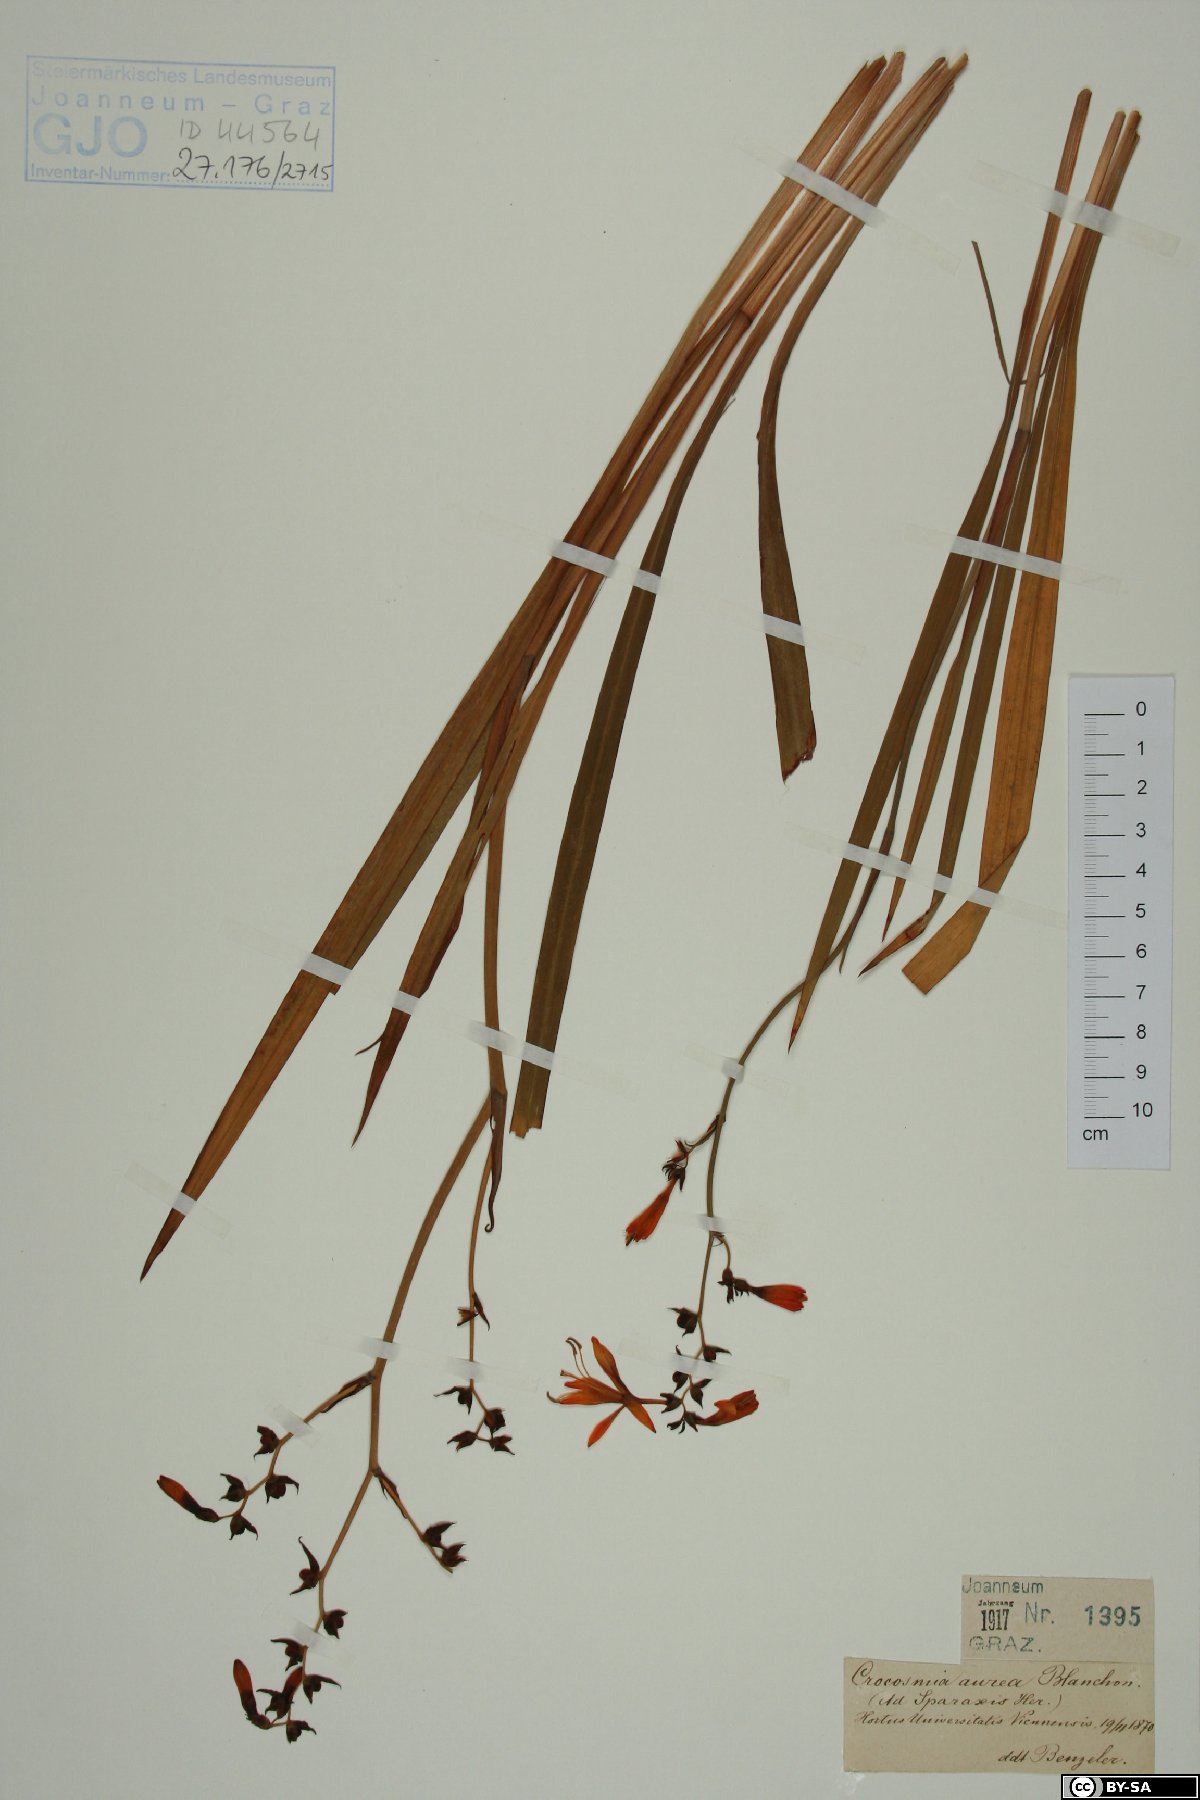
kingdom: Plantae
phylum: Tracheophyta
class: Liliopsida
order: Asparagales
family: Iridaceae
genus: Crocosmia
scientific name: Crocosmia aurea
